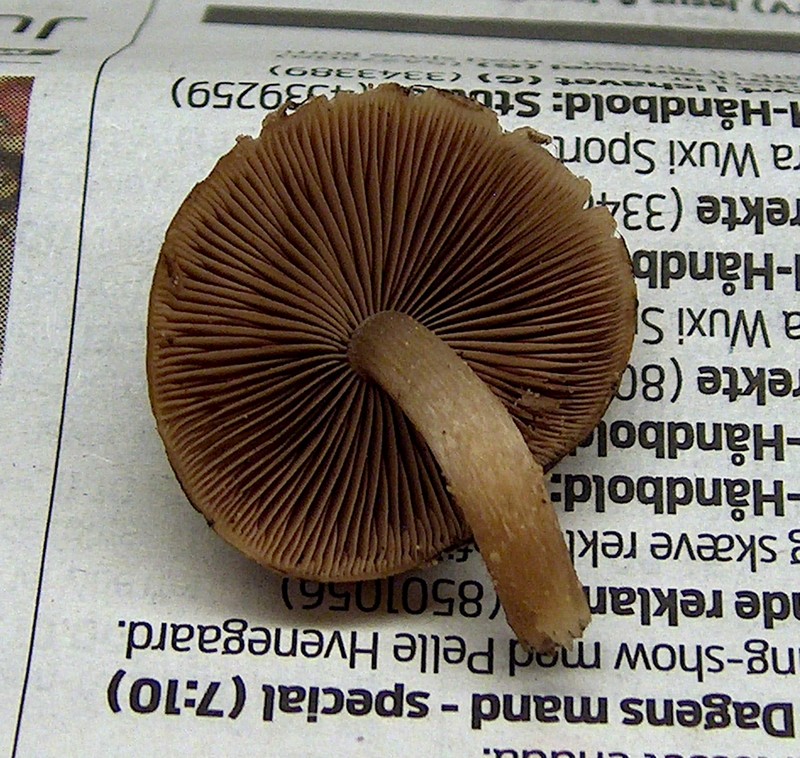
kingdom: Fungi
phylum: Basidiomycota
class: Agaricomycetes
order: Agaricales
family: Psathyrellaceae
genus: Psathyrella
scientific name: Psathyrella piluliformis
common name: lysstokket mørkhat
